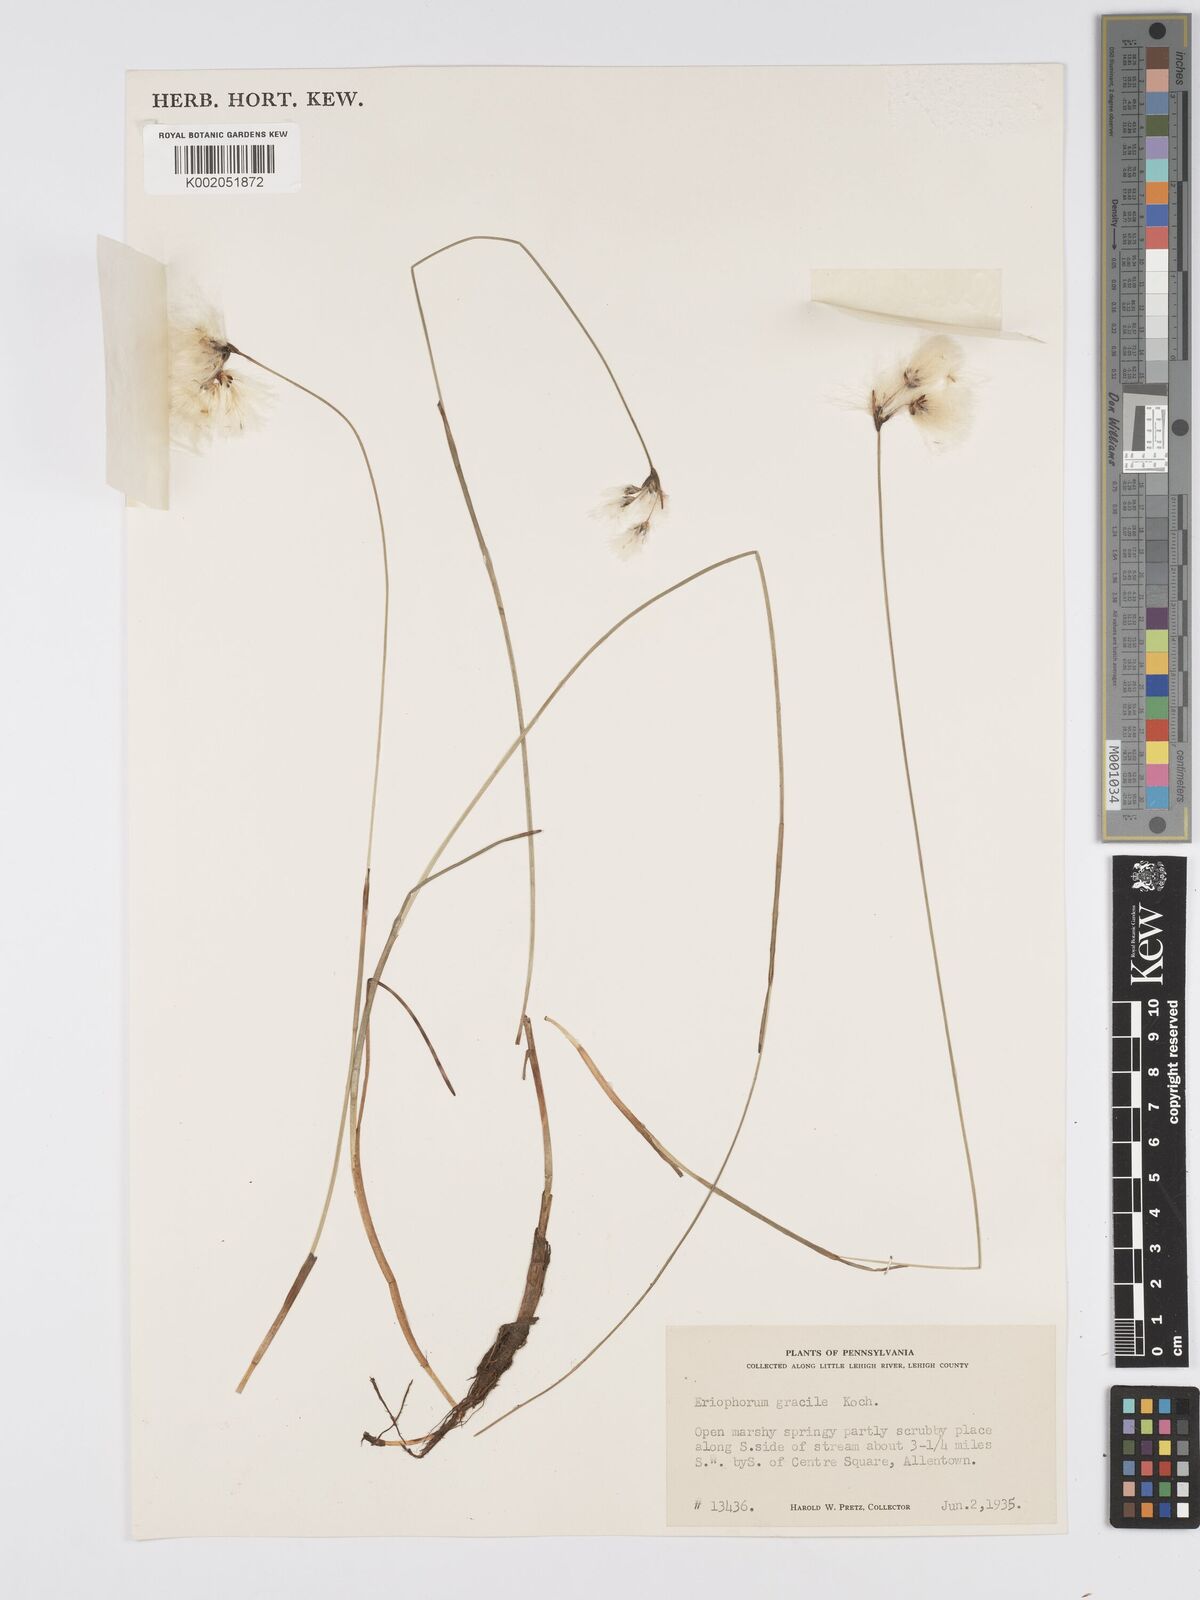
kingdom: Plantae
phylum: Tracheophyta
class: Liliopsida
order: Poales
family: Cyperaceae
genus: Eriophorum
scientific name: Eriophorum gracile
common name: Slender cottongrass
